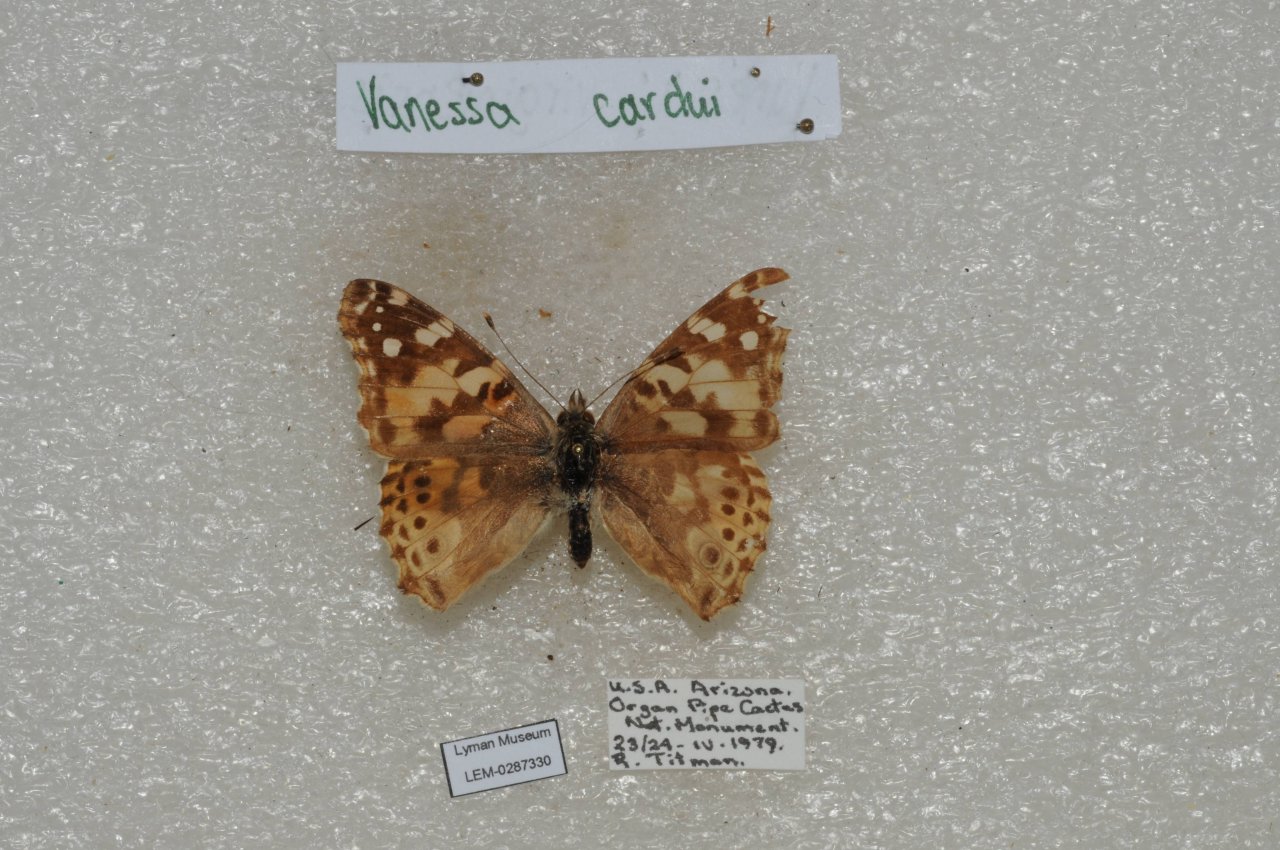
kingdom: Animalia
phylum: Arthropoda
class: Insecta
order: Lepidoptera
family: Nymphalidae
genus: Vanessa
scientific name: Vanessa cardui
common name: Painted Lady
